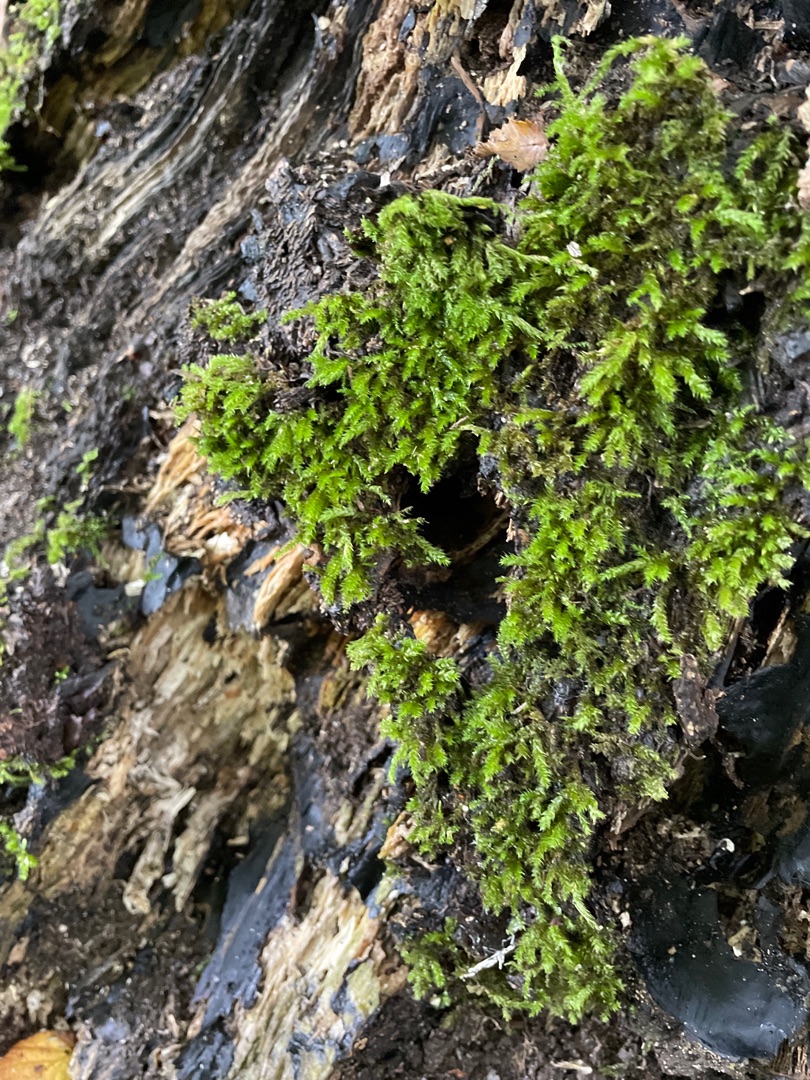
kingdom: Plantae
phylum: Bryophyta
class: Bryopsida
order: Hypnales
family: Brachytheciaceae
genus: Brachythecium
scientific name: Brachythecium rutabulum
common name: Almindelig kortkapsel
